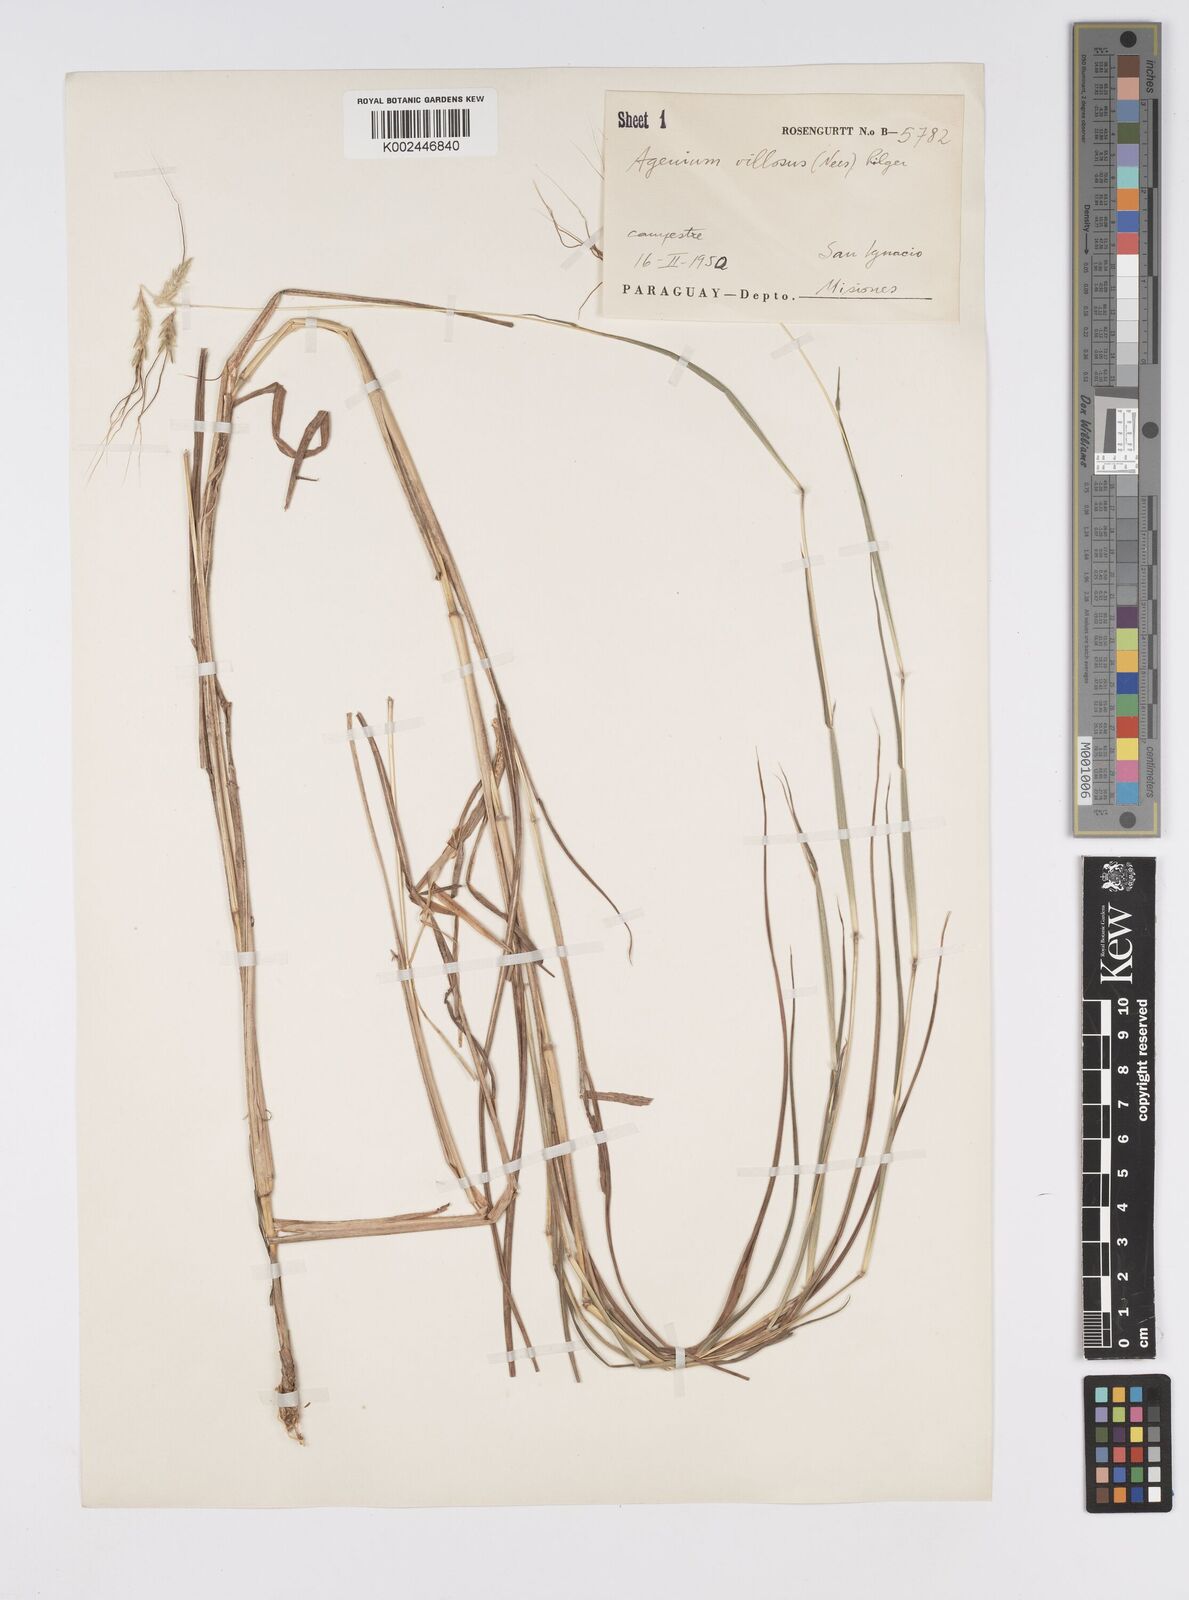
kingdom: Plantae
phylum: Tracheophyta
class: Liliopsida
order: Poales
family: Poaceae
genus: Agenium
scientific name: Agenium villosum
